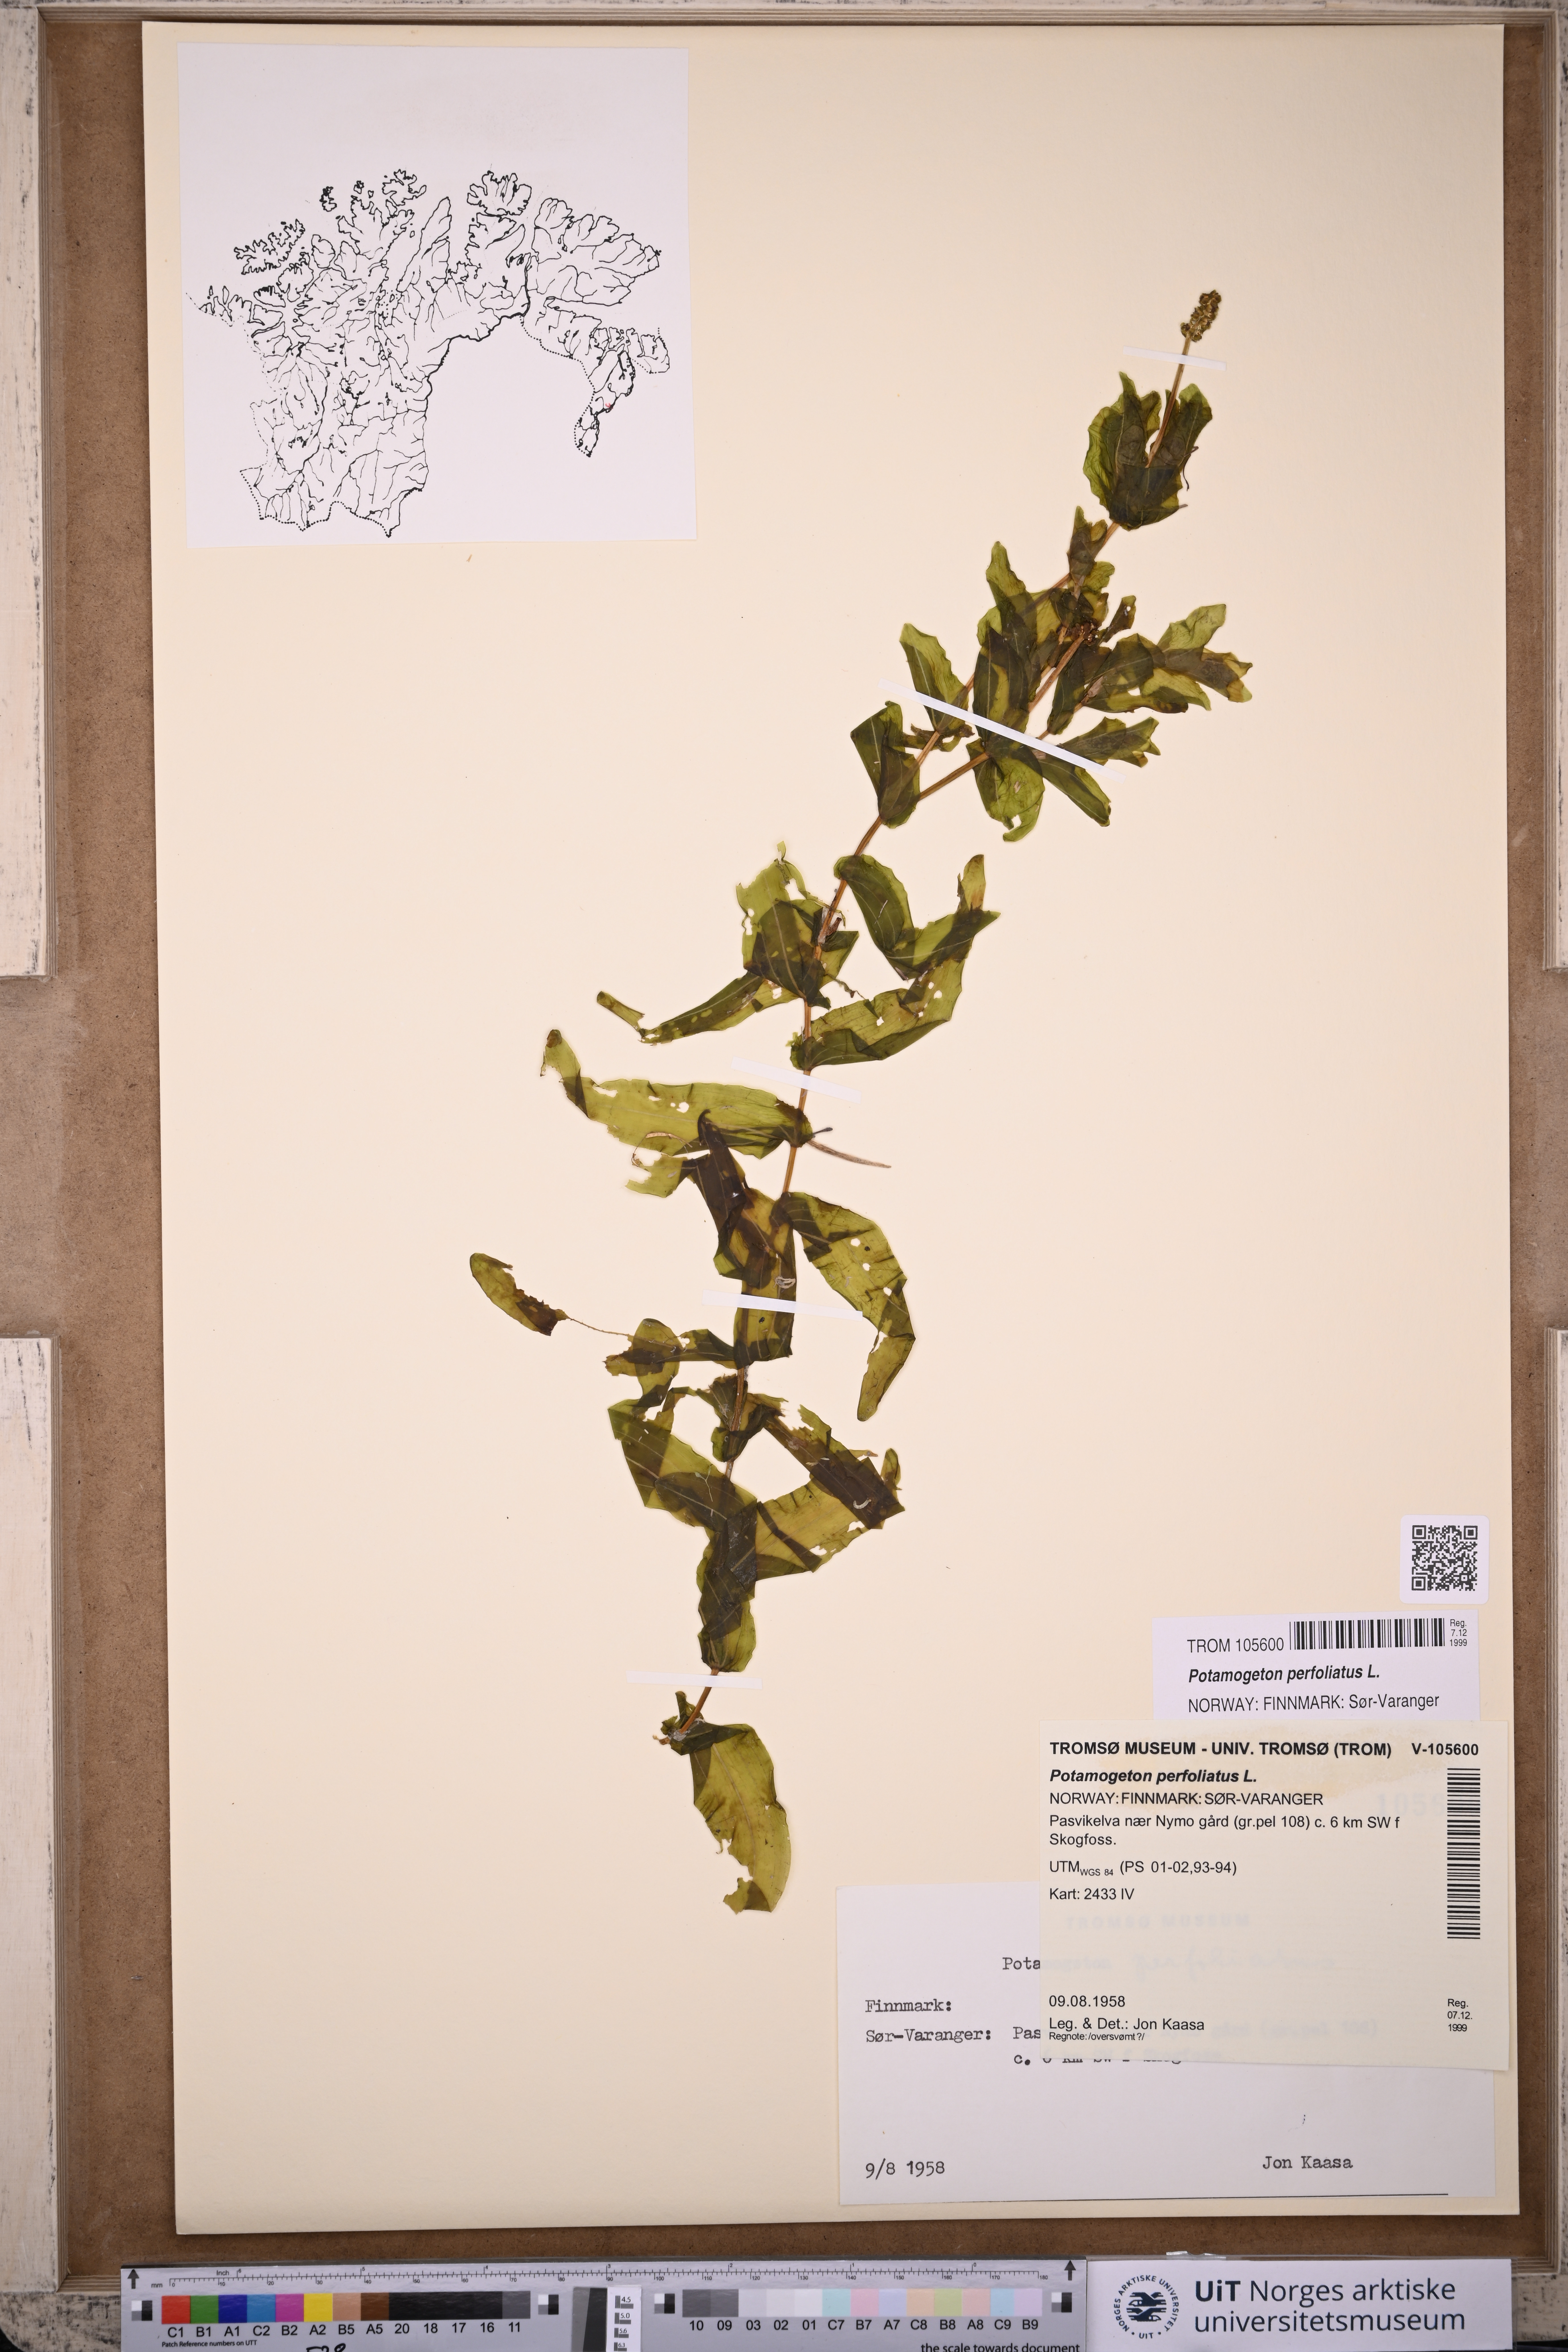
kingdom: Plantae
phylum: Tracheophyta
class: Liliopsida
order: Alismatales
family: Potamogetonaceae
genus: Potamogeton
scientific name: Potamogeton perfoliatus
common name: Perfoliate pondweed
